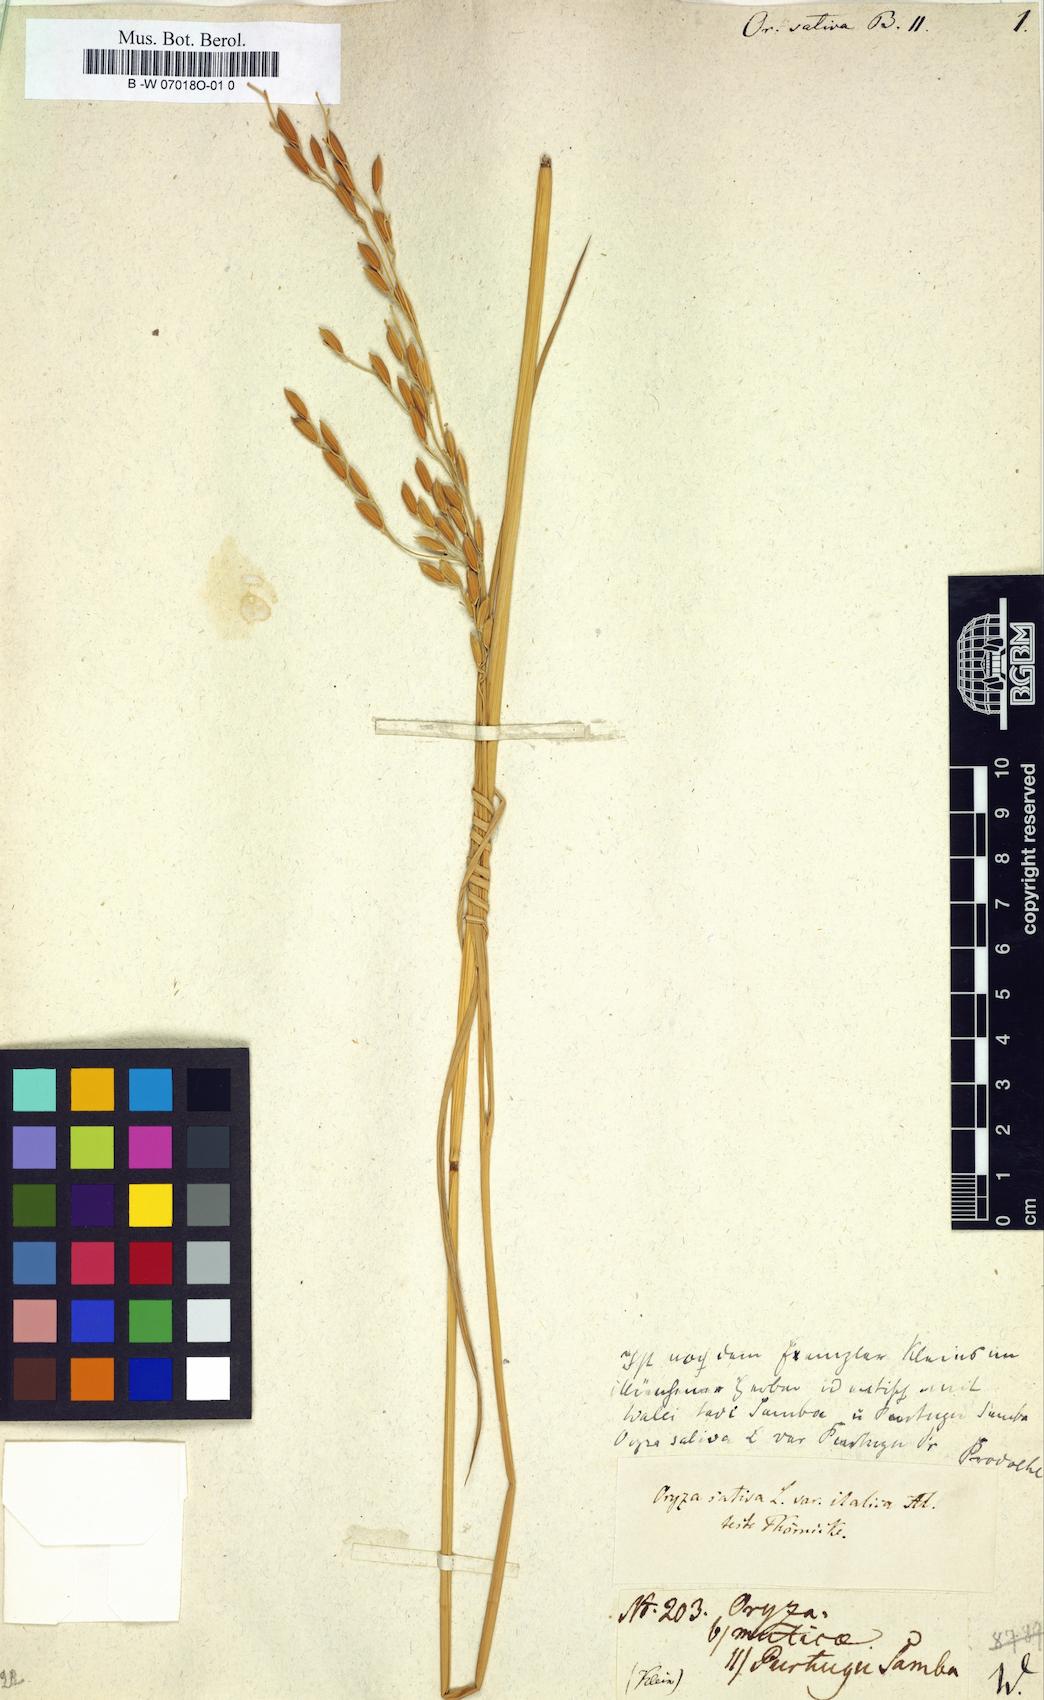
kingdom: Plantae
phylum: Tracheophyta
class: Liliopsida
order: Poales
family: Poaceae
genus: Oryza
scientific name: Oryza sativa
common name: Rice
